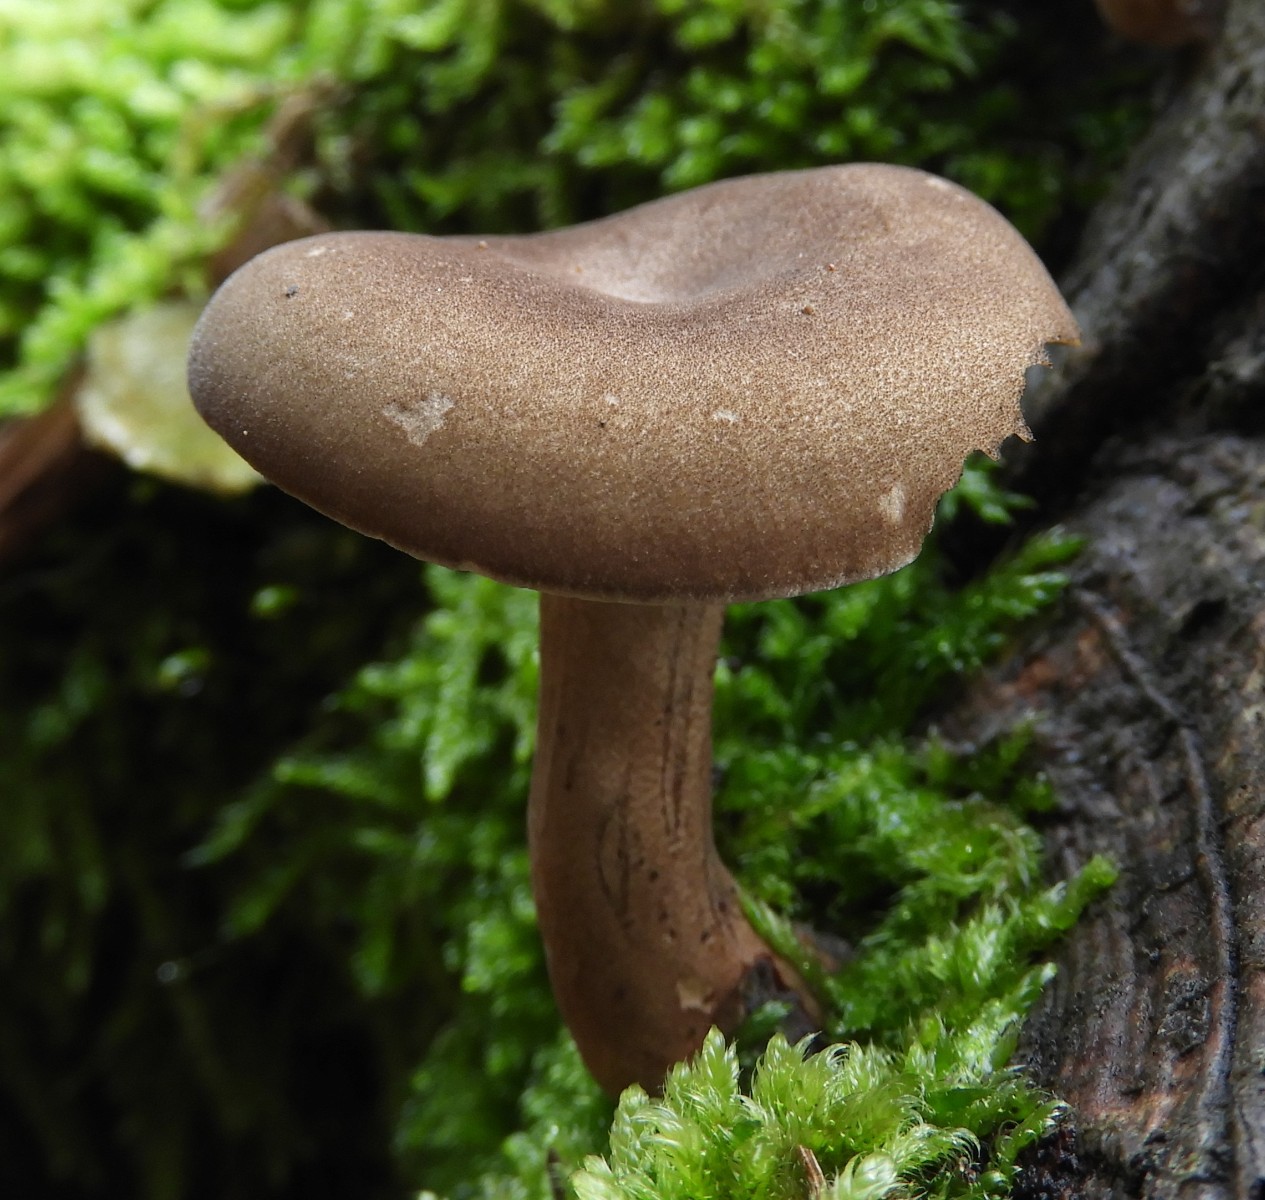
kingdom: Fungi
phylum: Basidiomycota
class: Agaricomycetes
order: Polyporales
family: Polyporaceae
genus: Lentinus
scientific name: Lentinus brumalis
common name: vinter-stilkporesvamp
